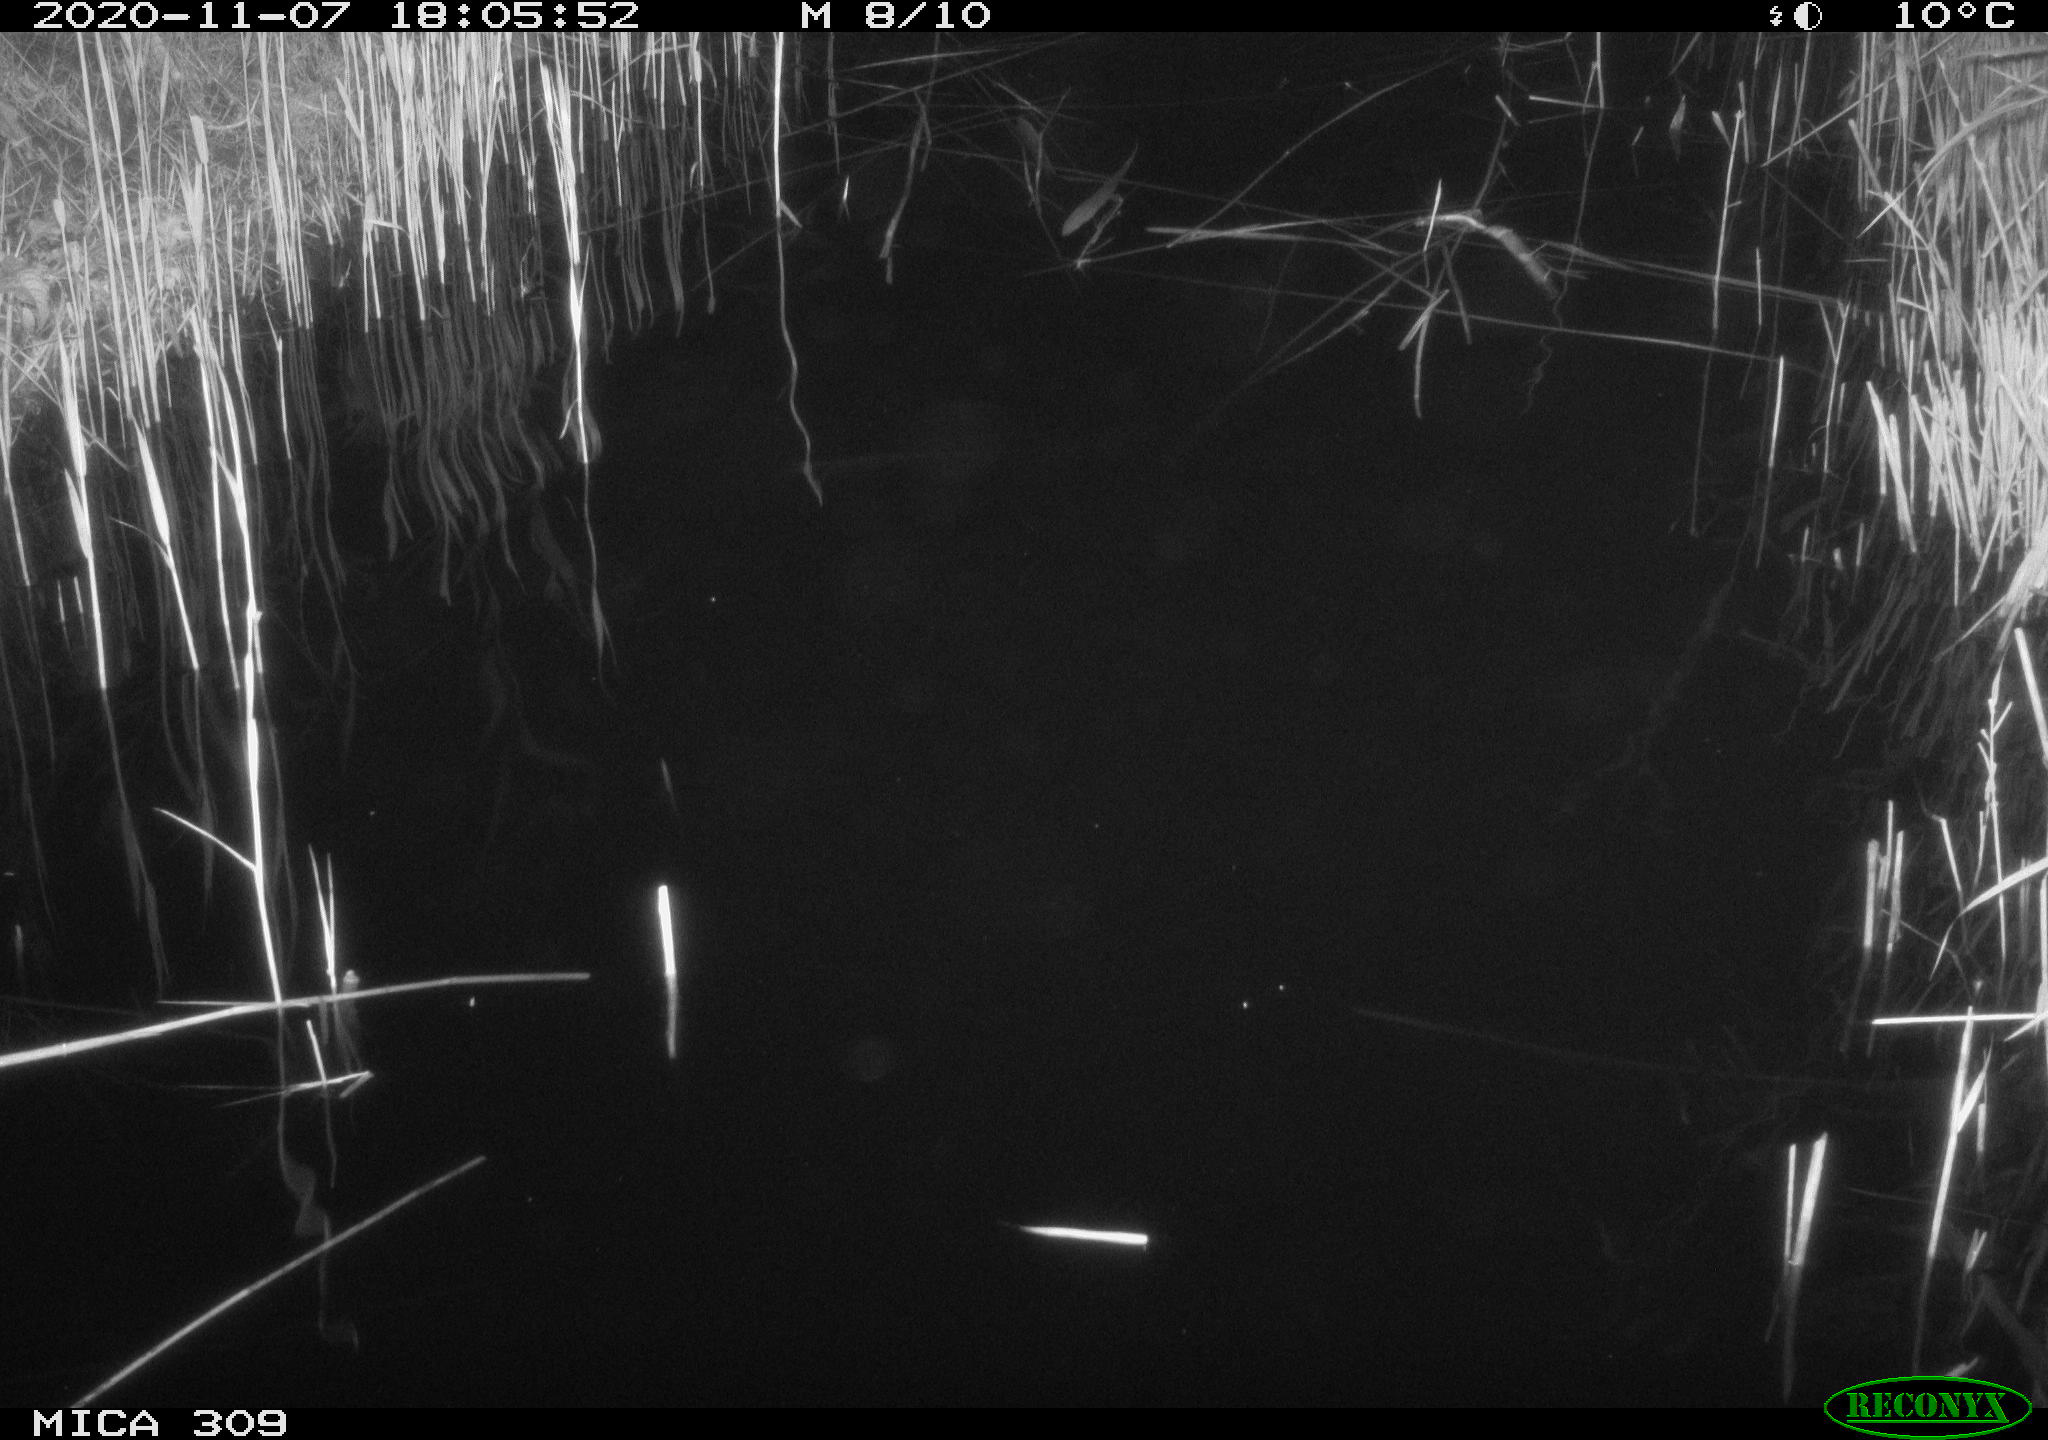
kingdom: Animalia
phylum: Chordata
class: Mammalia
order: Rodentia
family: Muridae
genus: Rattus
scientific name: Rattus norvegicus
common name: Brown rat
